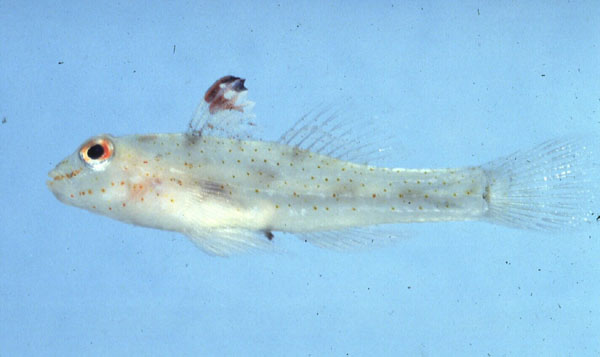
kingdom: Animalia
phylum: Chordata
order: Perciformes
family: Gobiidae
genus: Fusigobius
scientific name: Fusigobius signipinnis
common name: Flasher sand-goby
